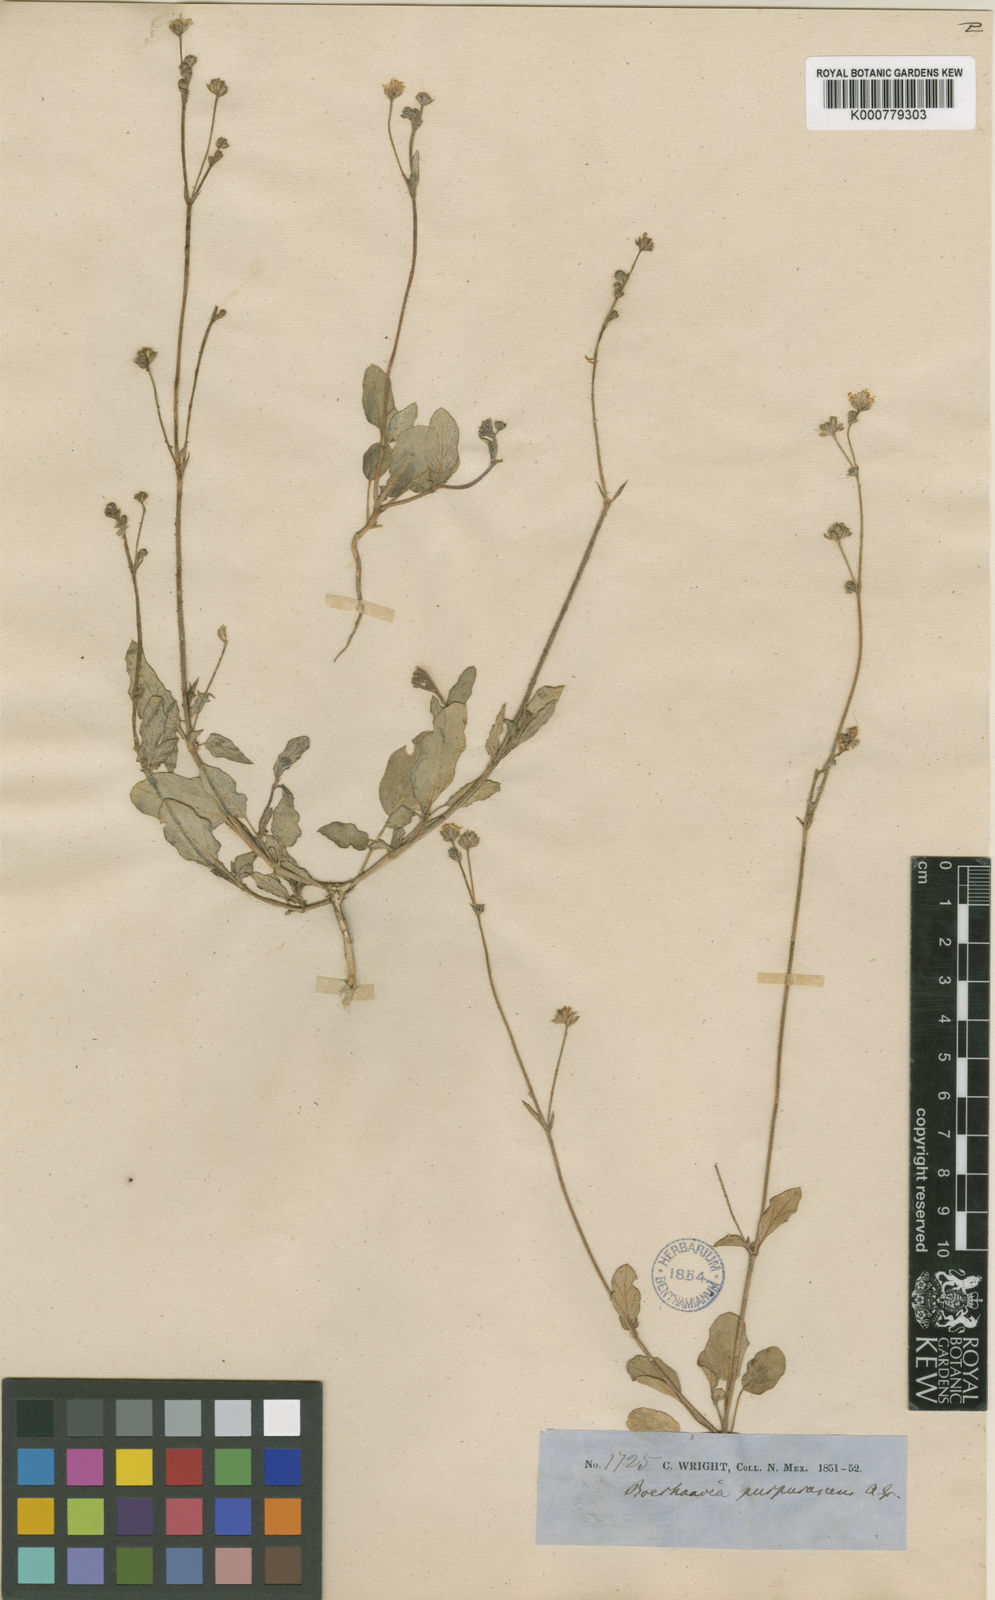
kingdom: Plantae
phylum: Tracheophyta
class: Magnoliopsida
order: Caryophyllales
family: Nyctaginaceae
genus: Boerhavia
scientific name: Boerhavia purpurascens
